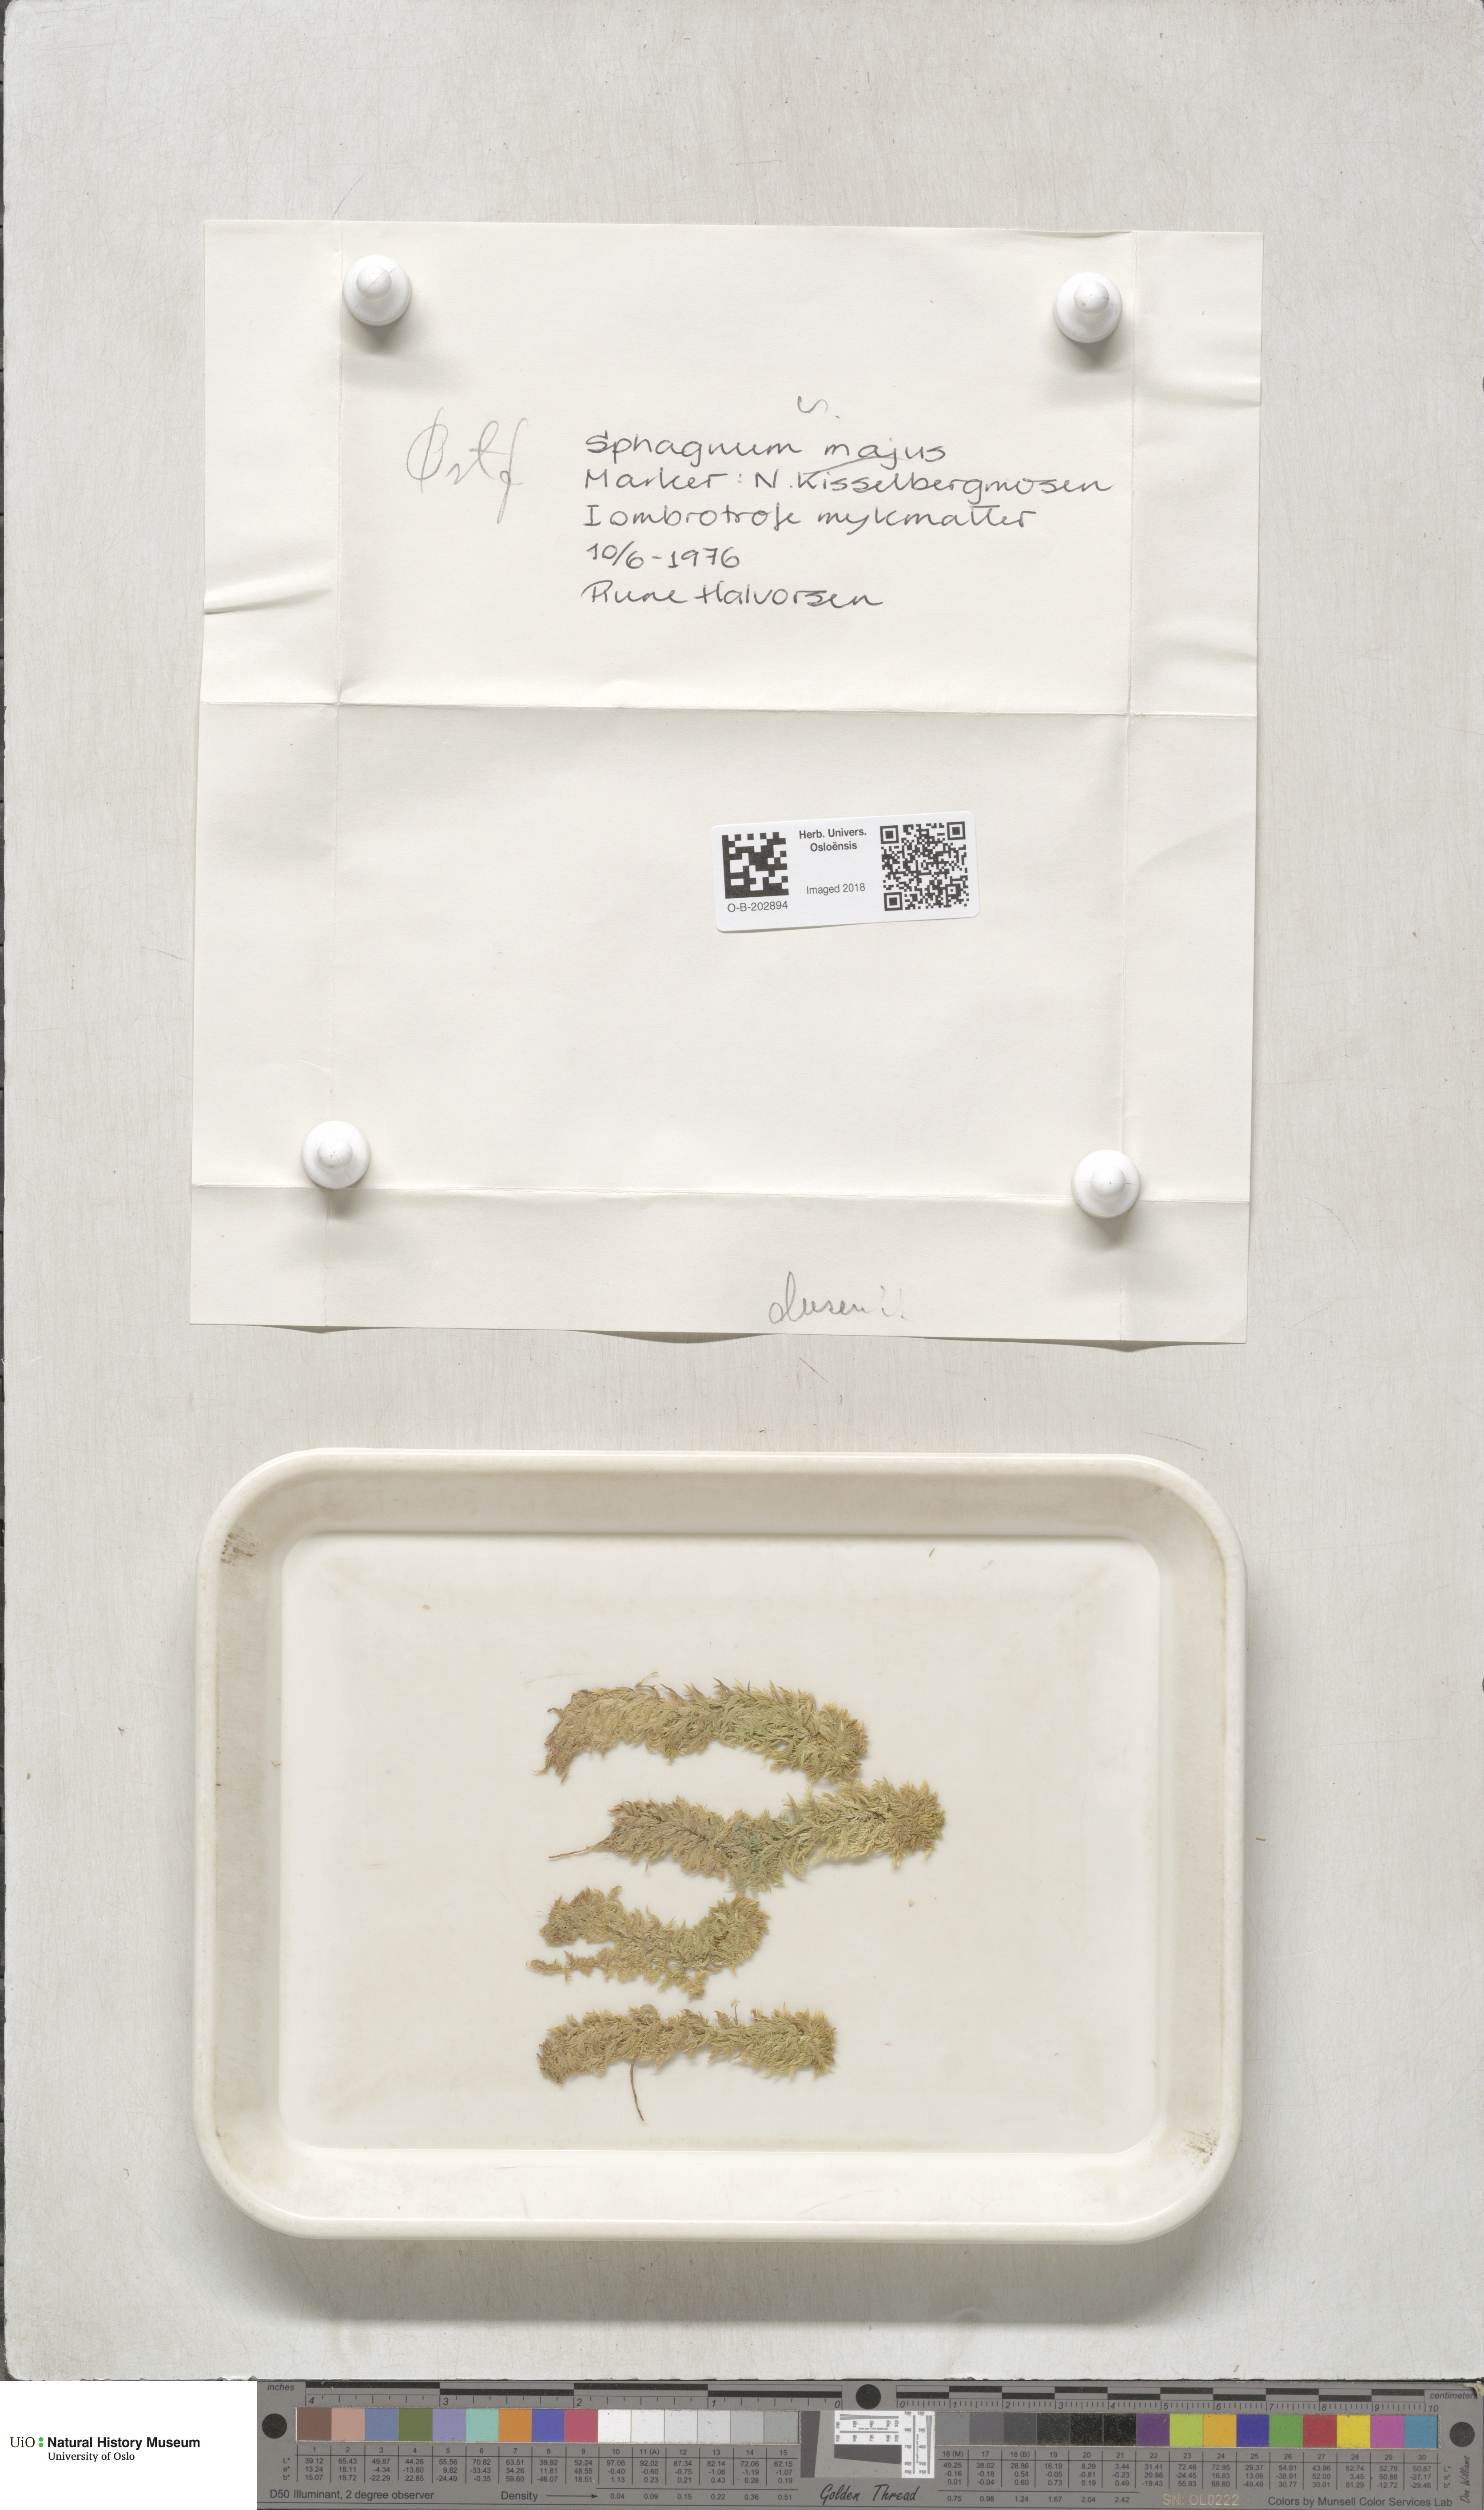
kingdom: Plantae
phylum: Bryophyta
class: Sphagnopsida
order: Sphagnales
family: Sphagnaceae
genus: Sphagnum
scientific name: Sphagnum majus
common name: Olive bog-moss
